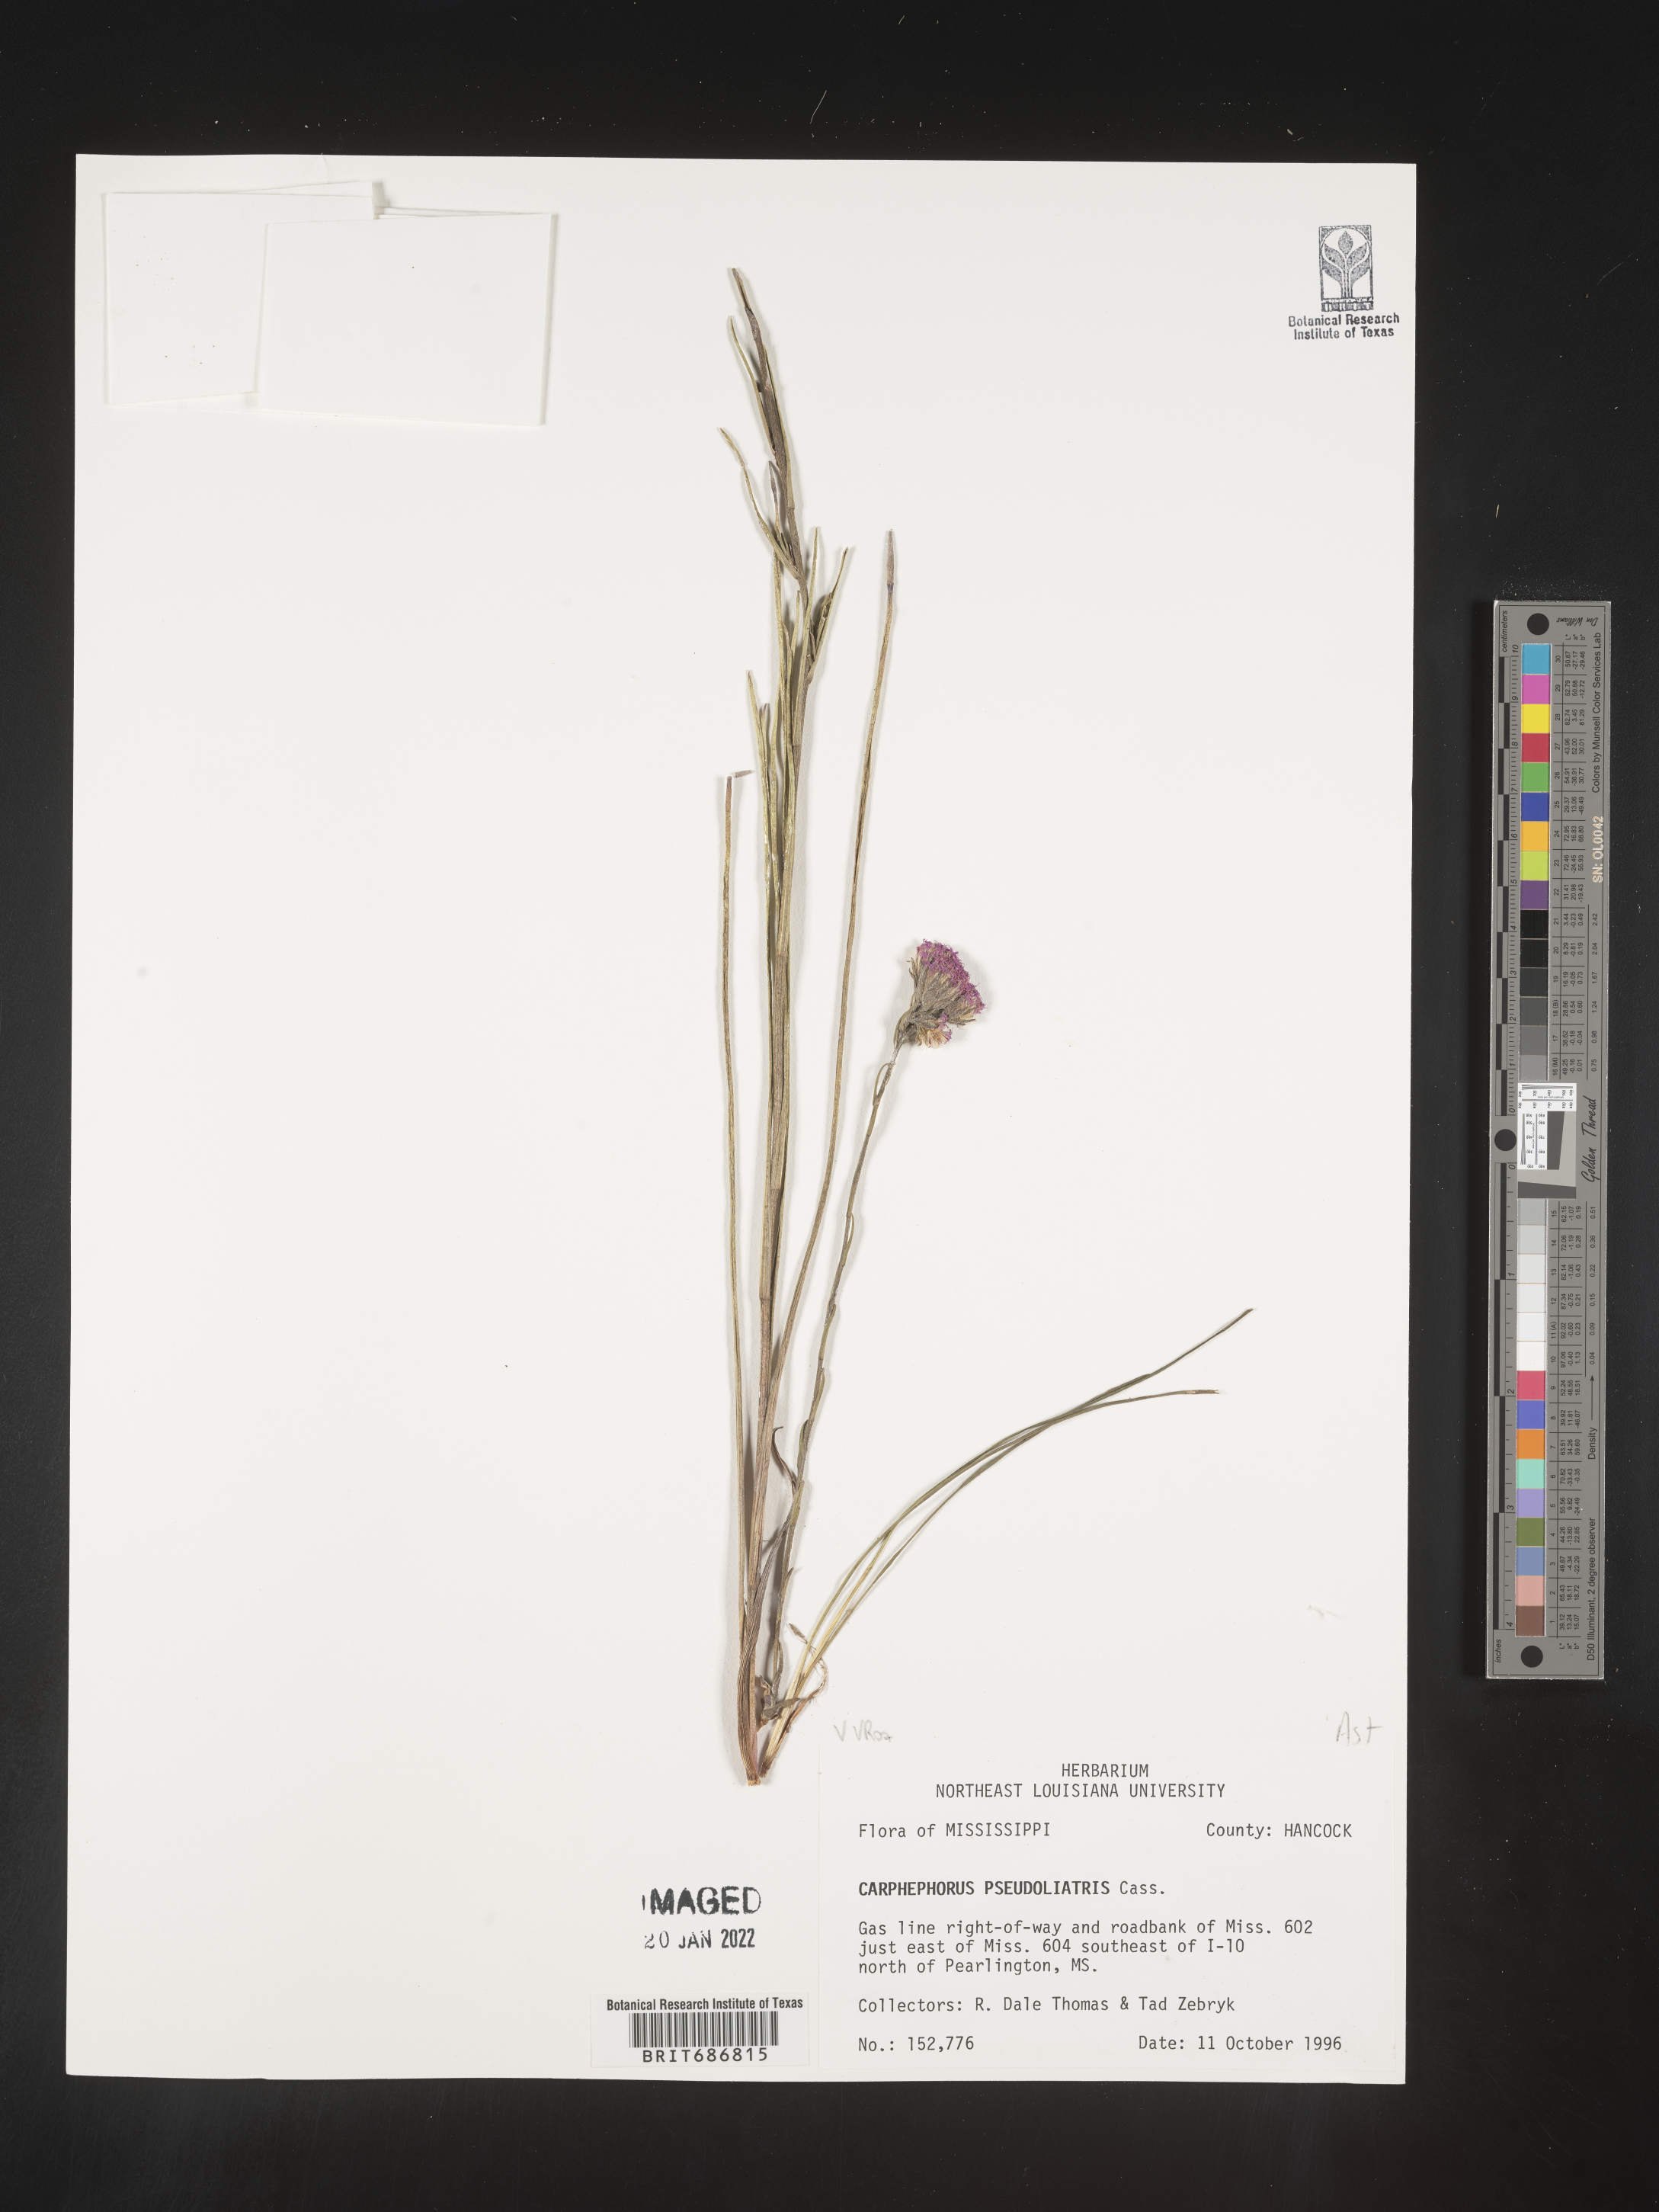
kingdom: Plantae
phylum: Tracheophyta
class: Magnoliopsida
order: Asterales
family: Asteraceae
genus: Carphephorus
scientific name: Carphephorus pseudoliatris
